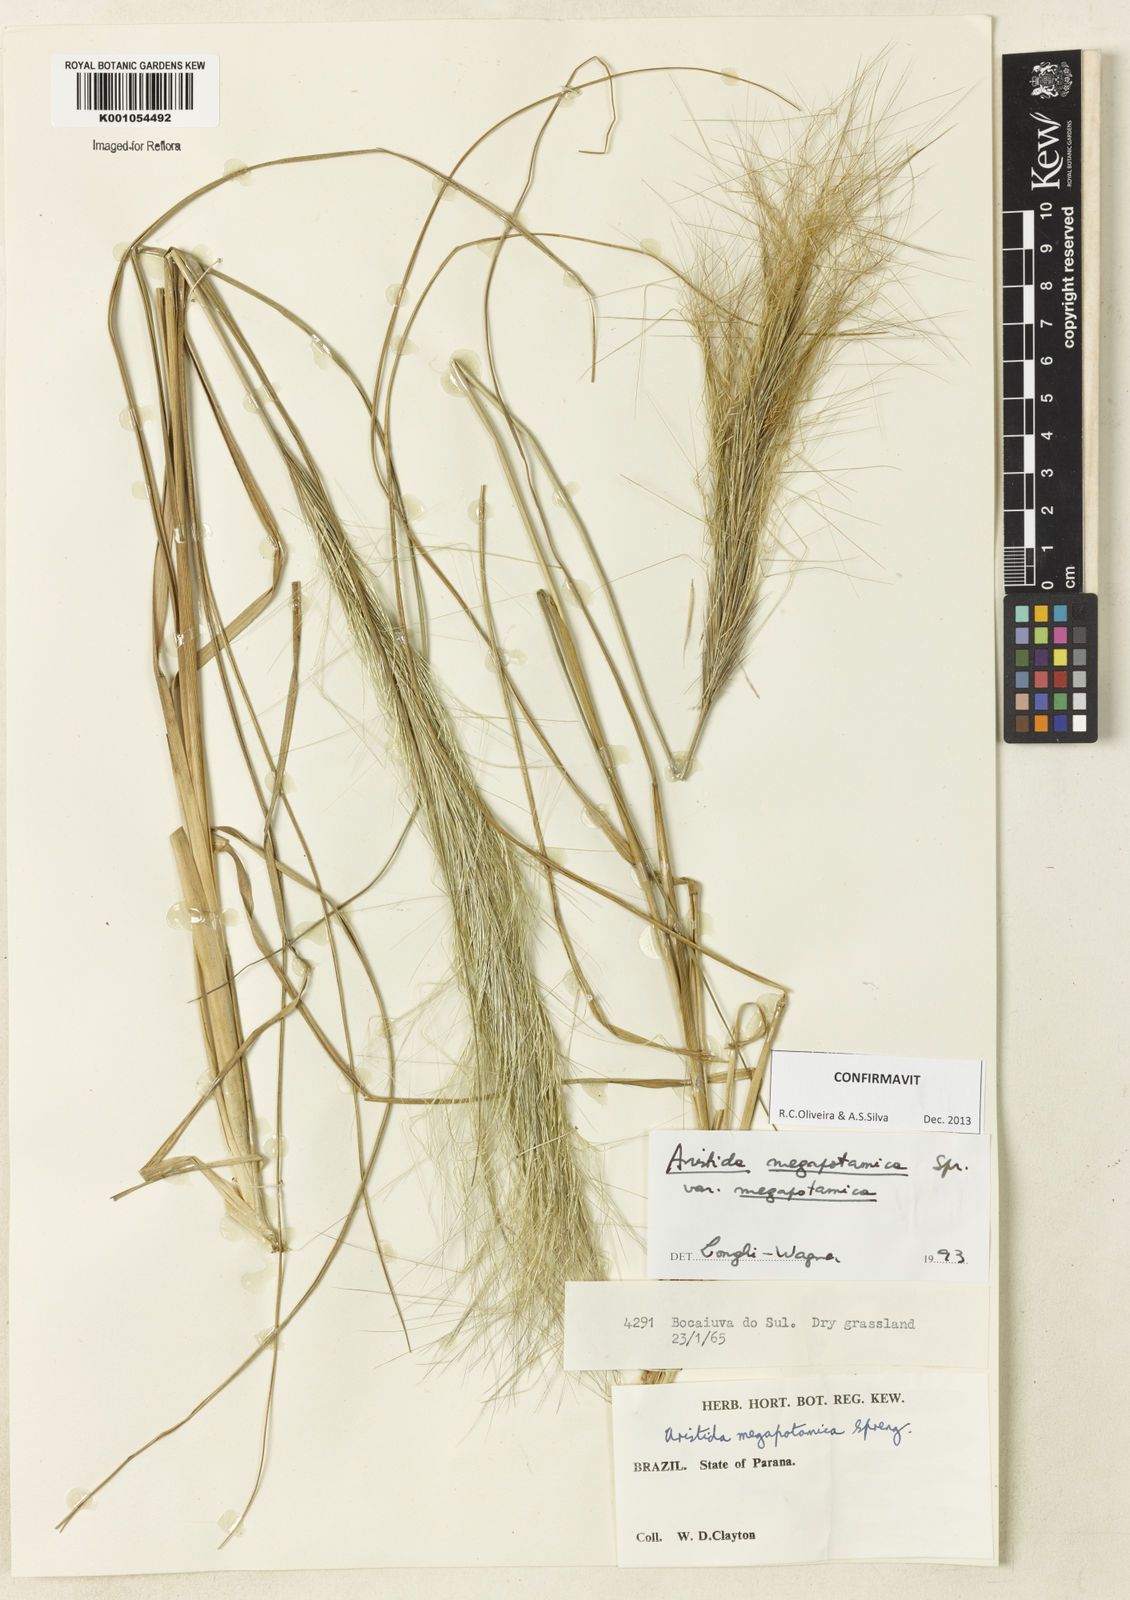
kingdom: Plantae
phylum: Tracheophyta
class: Liliopsida
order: Poales
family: Poaceae
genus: Aristida
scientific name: Aristida megapotamica
